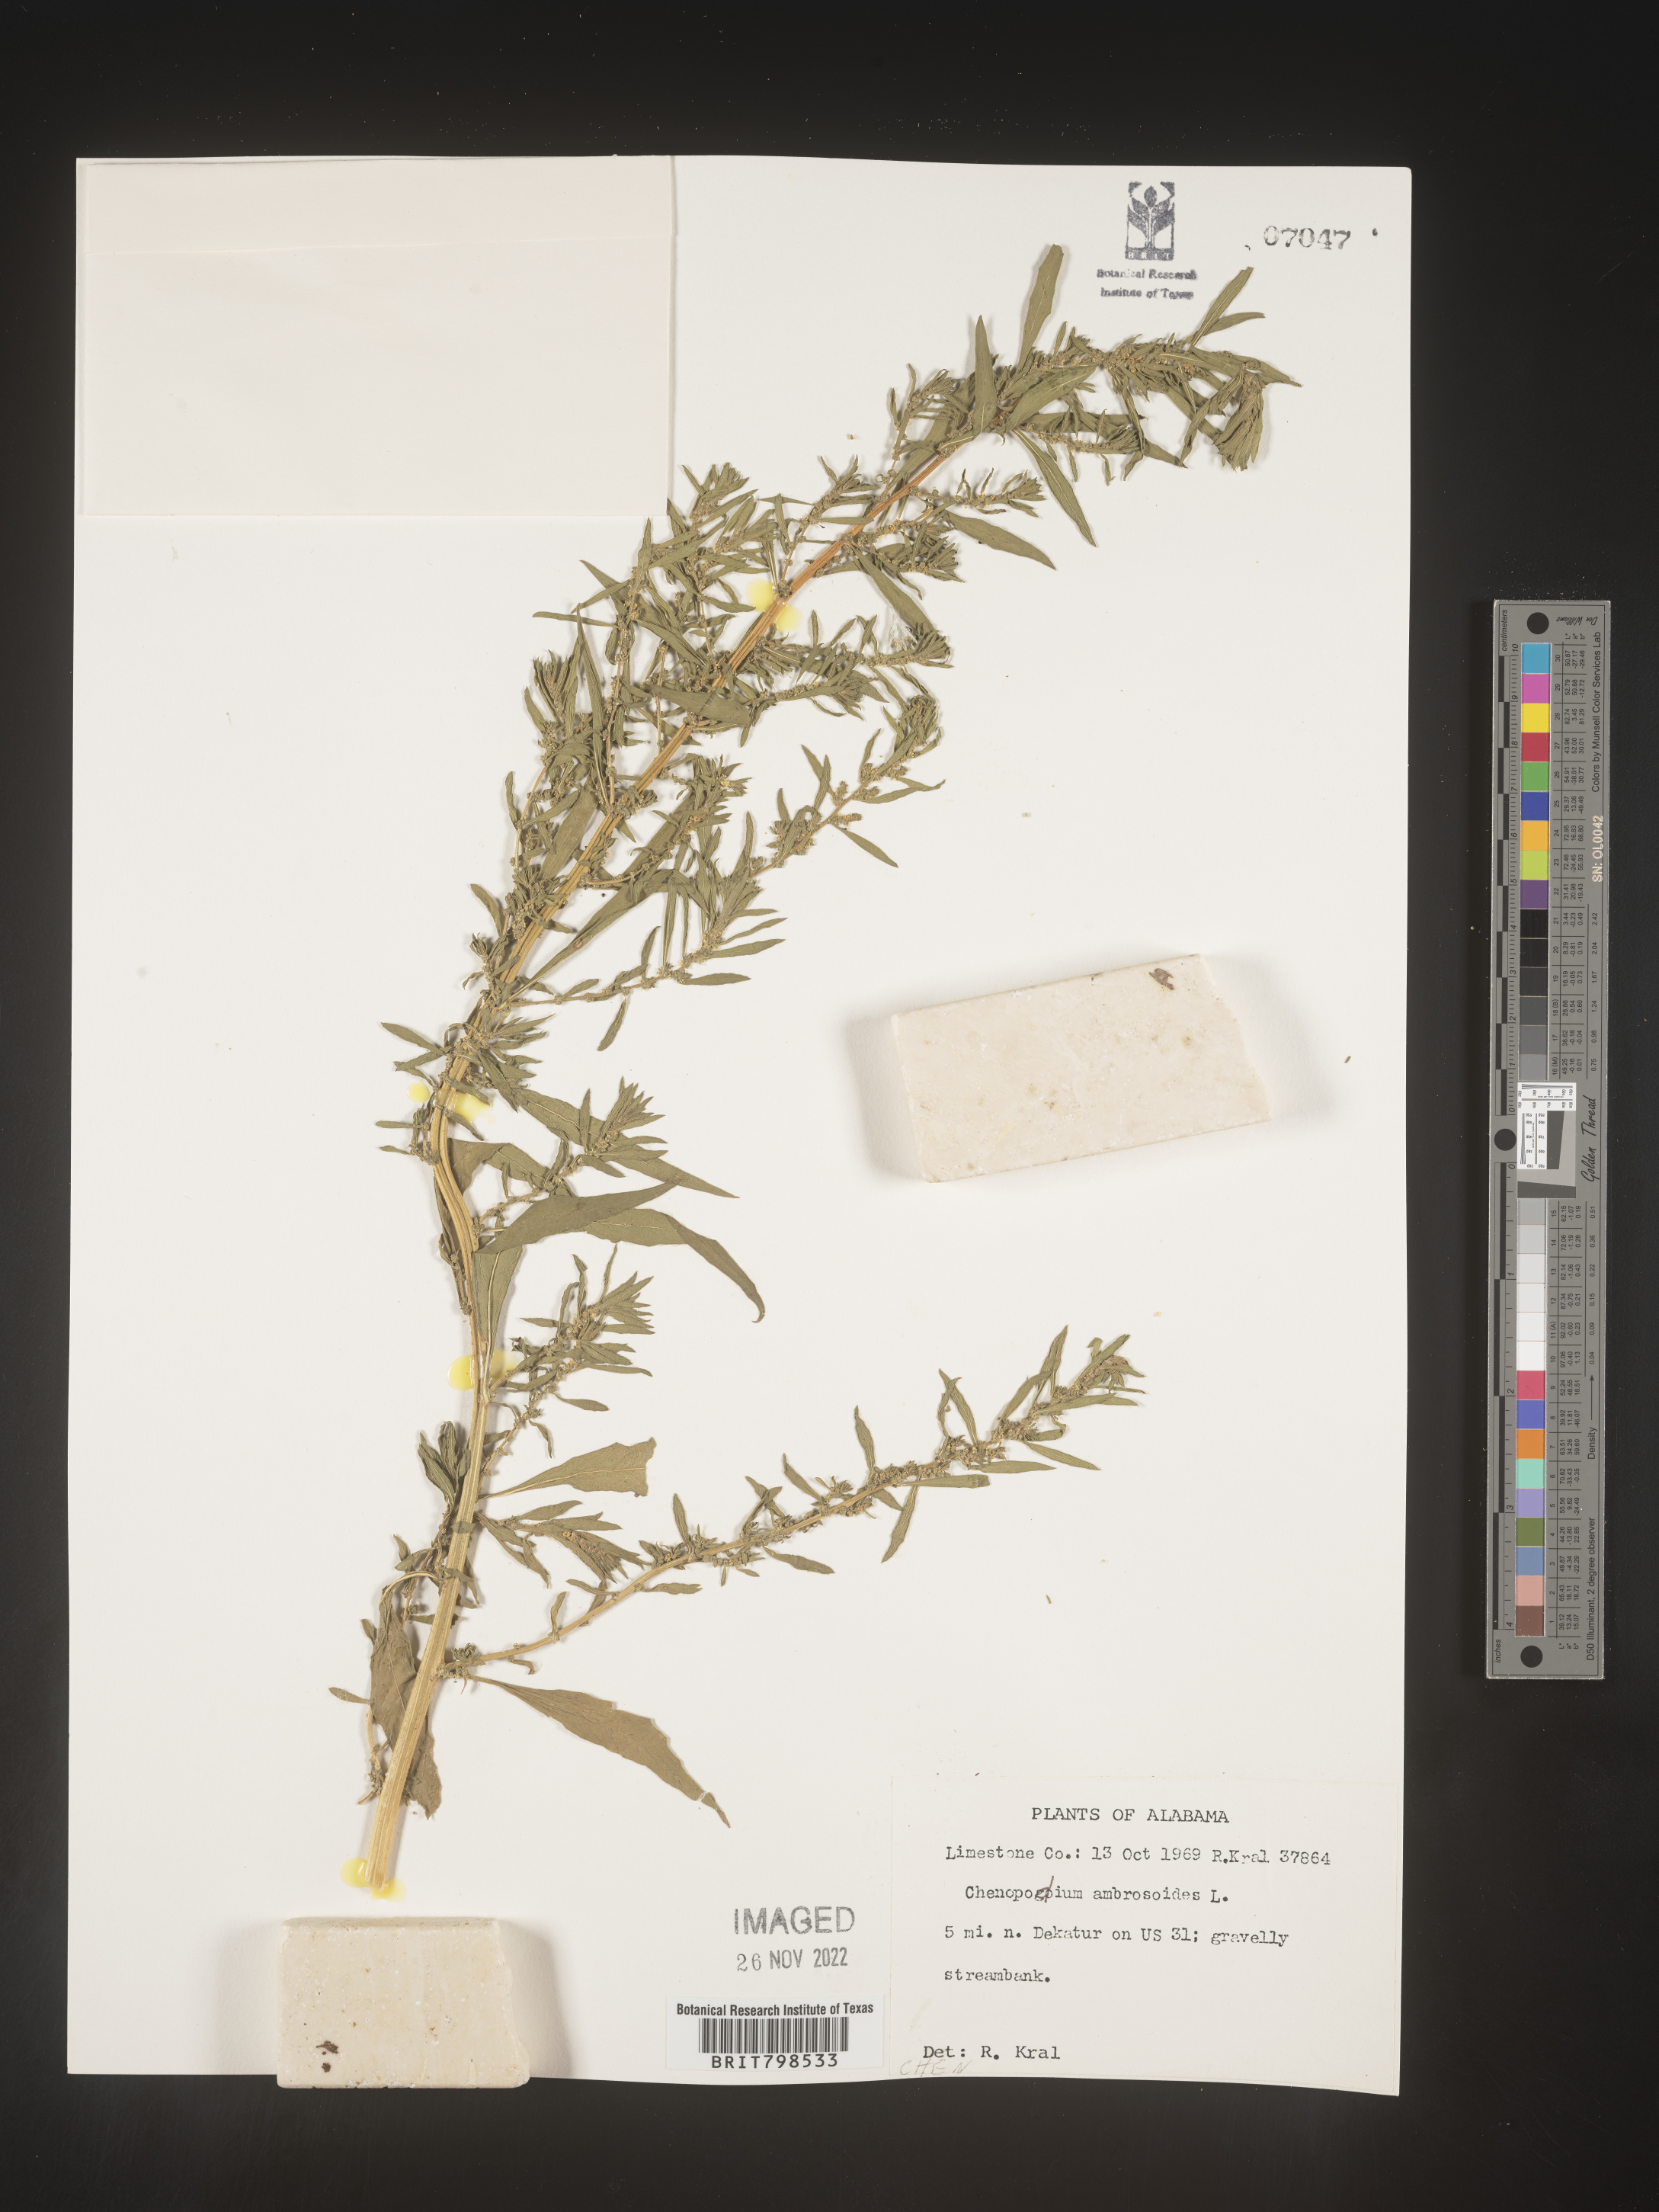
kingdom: Plantae
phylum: Tracheophyta
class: Magnoliopsida
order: Caryophyllales
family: Amaranthaceae
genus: Dysphania
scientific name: Dysphania ambrosioides
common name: Wormseed
